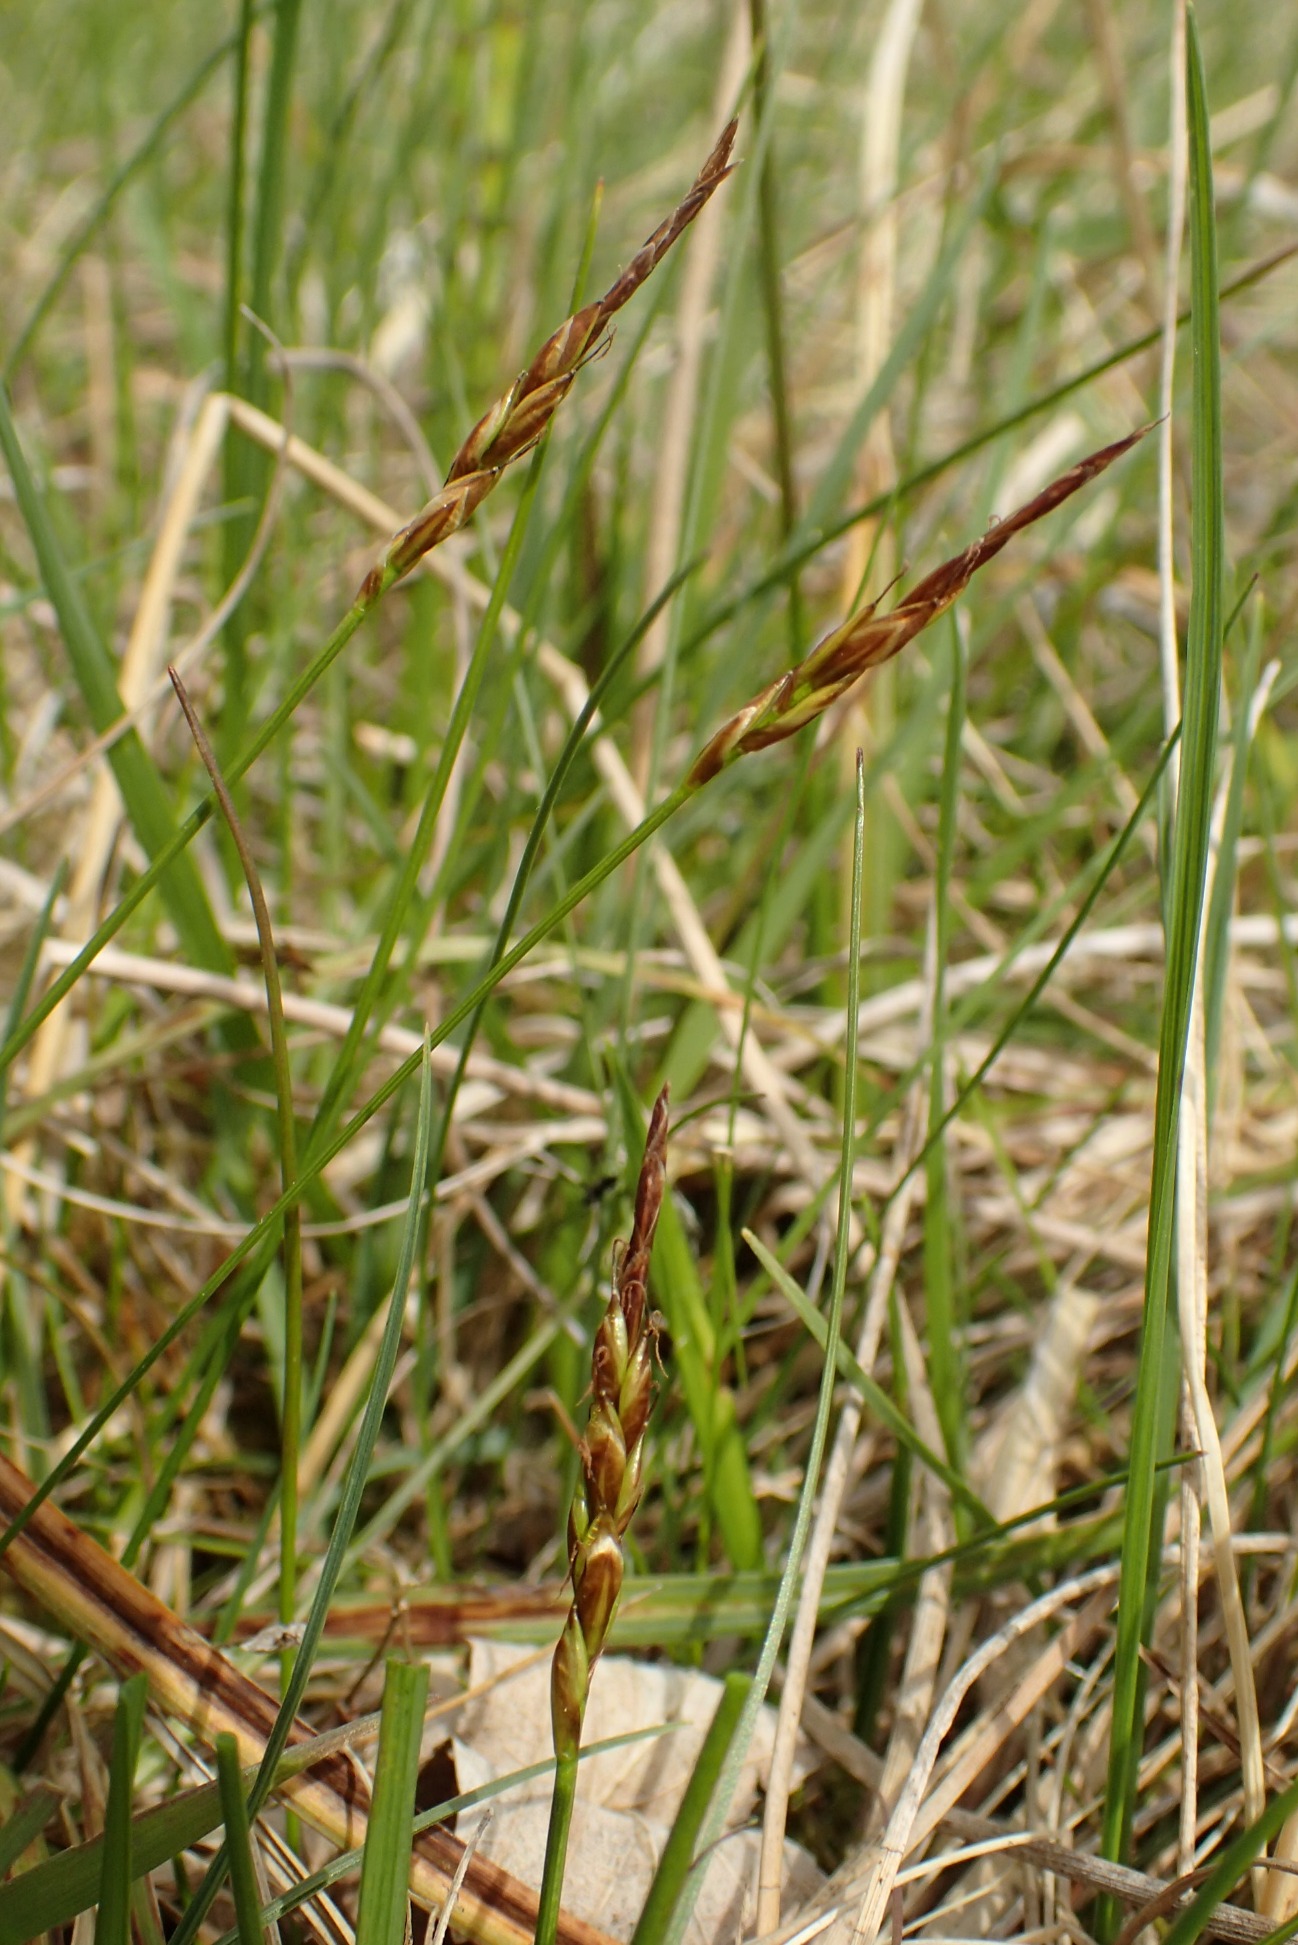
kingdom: Plantae
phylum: Tracheophyta
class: Liliopsida
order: Poales
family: Cyperaceae
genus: Carex
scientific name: Carex pulicaris
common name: Loppe-star
